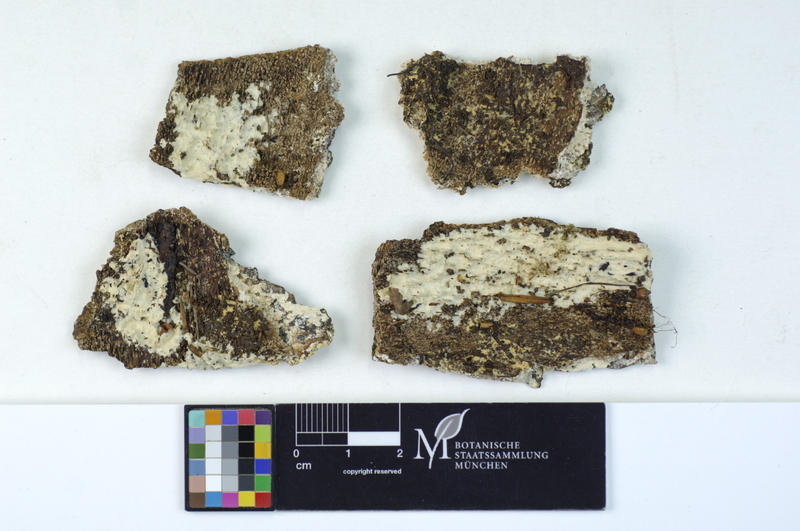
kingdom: Plantae
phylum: Tracheophyta
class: Magnoliopsida
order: Fagales
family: Fagaceae
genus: Fagus
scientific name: Fagus sylvatica
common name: Beech
